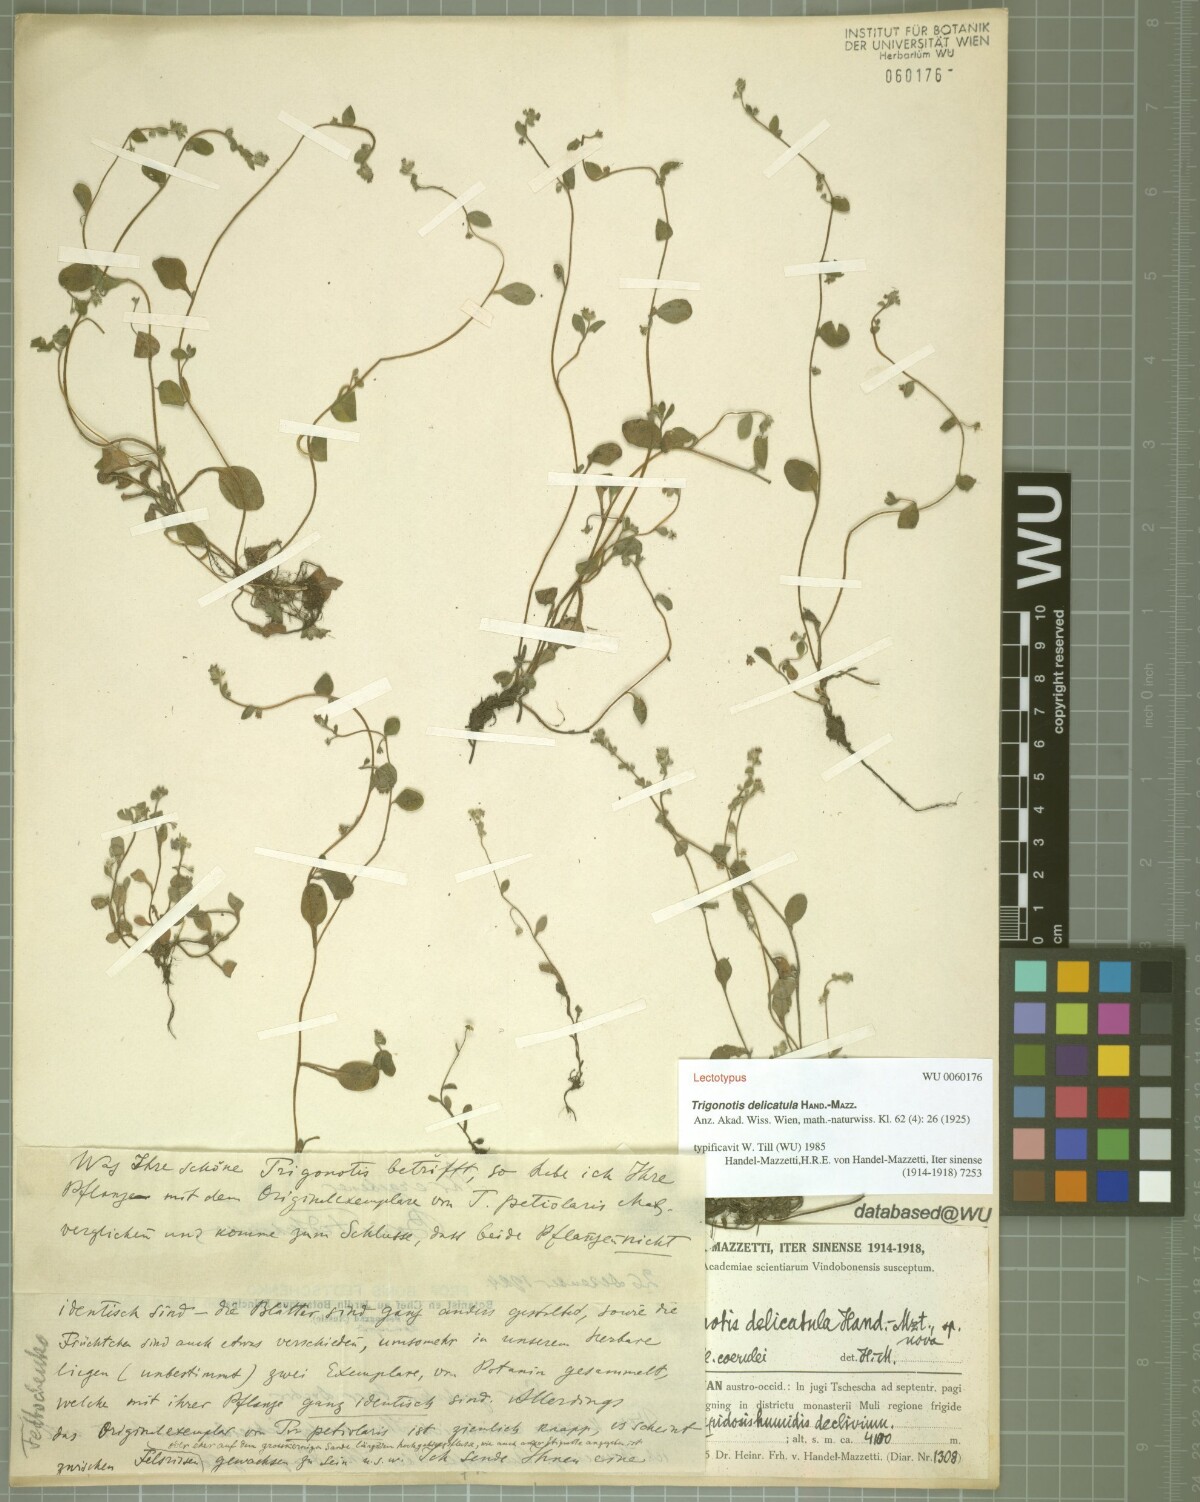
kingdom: Plantae
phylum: Tracheophyta
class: Magnoliopsida
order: Boraginales
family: Boraginaceae
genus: Trigonotis
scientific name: Trigonotis delicatula
